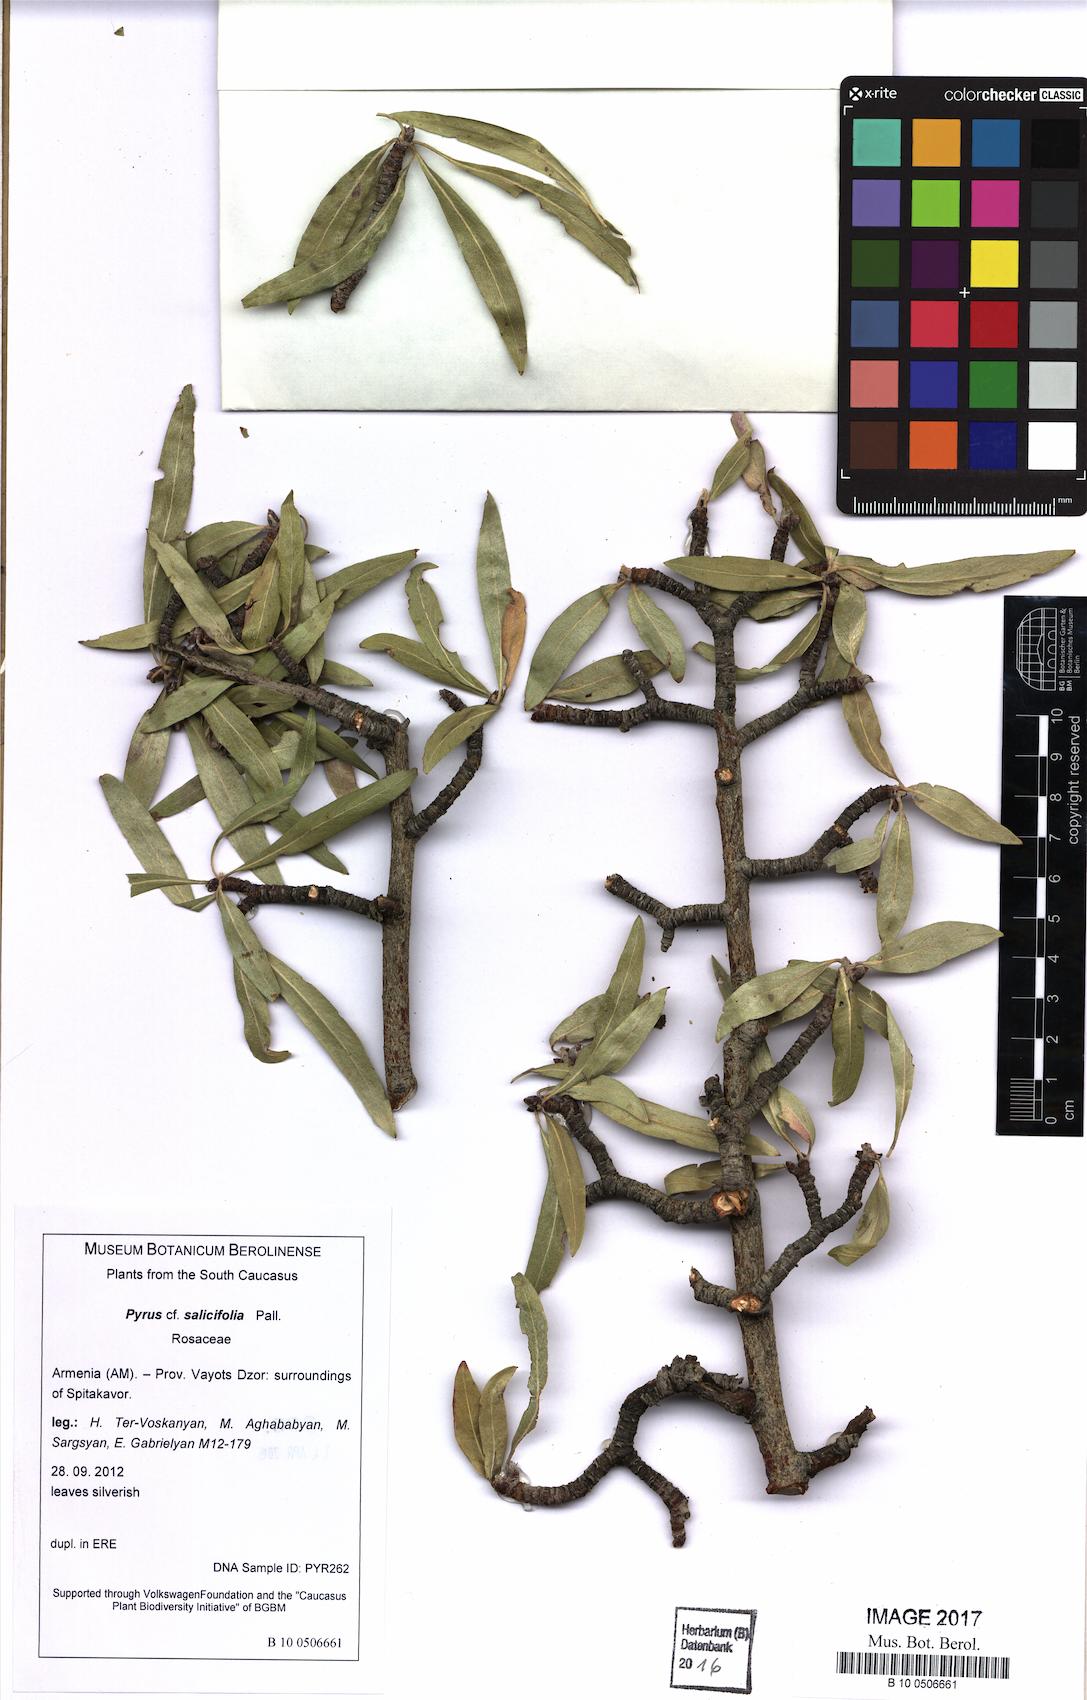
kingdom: Plantae
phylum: Tracheophyta
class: Magnoliopsida
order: Rosales
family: Rosaceae
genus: Pyrus
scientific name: Pyrus salicifolia
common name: Willow-leaved pear
